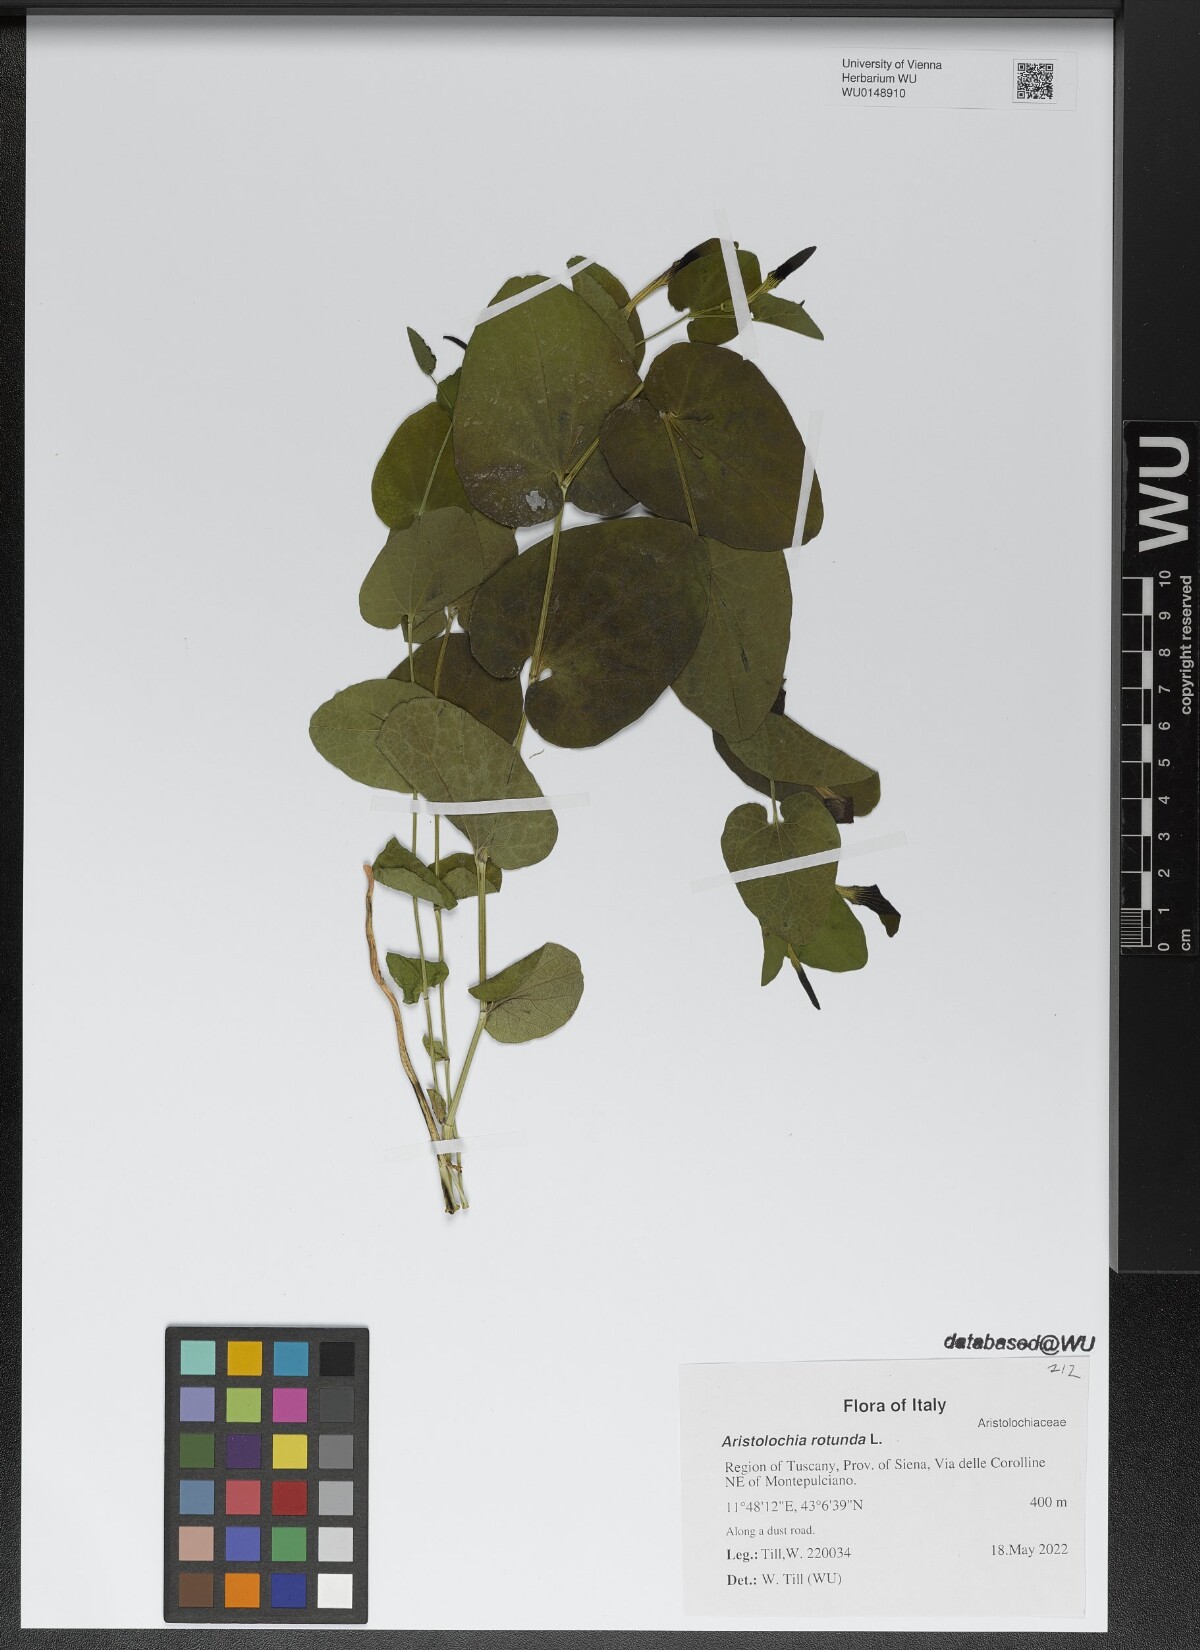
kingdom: Plantae
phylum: Tracheophyta
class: Magnoliopsida
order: Piperales
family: Aristolochiaceae
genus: Aristolochia
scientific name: Aristolochia rotunda
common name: Smearwort
